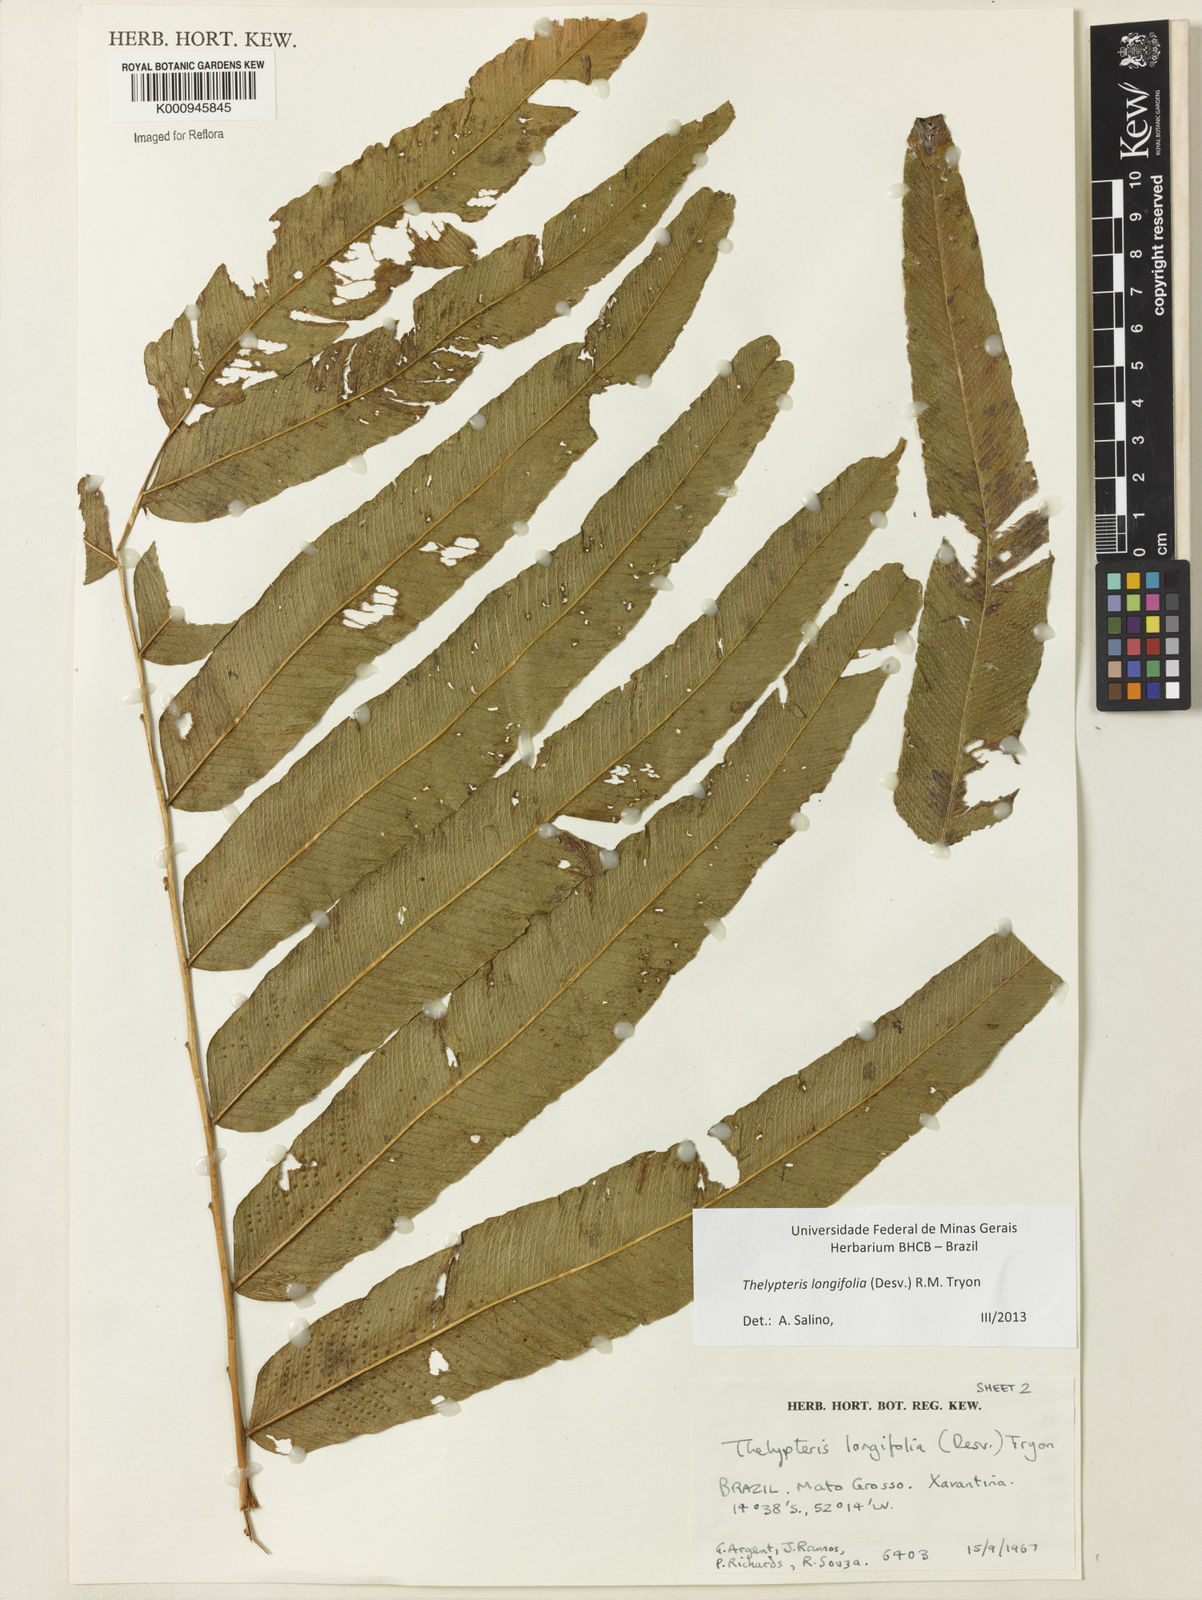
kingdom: Plantae
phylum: Tracheophyta
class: Polypodiopsida
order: Polypodiales
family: Thelypteridaceae
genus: Meniscium
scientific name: Meniscium longifolium
